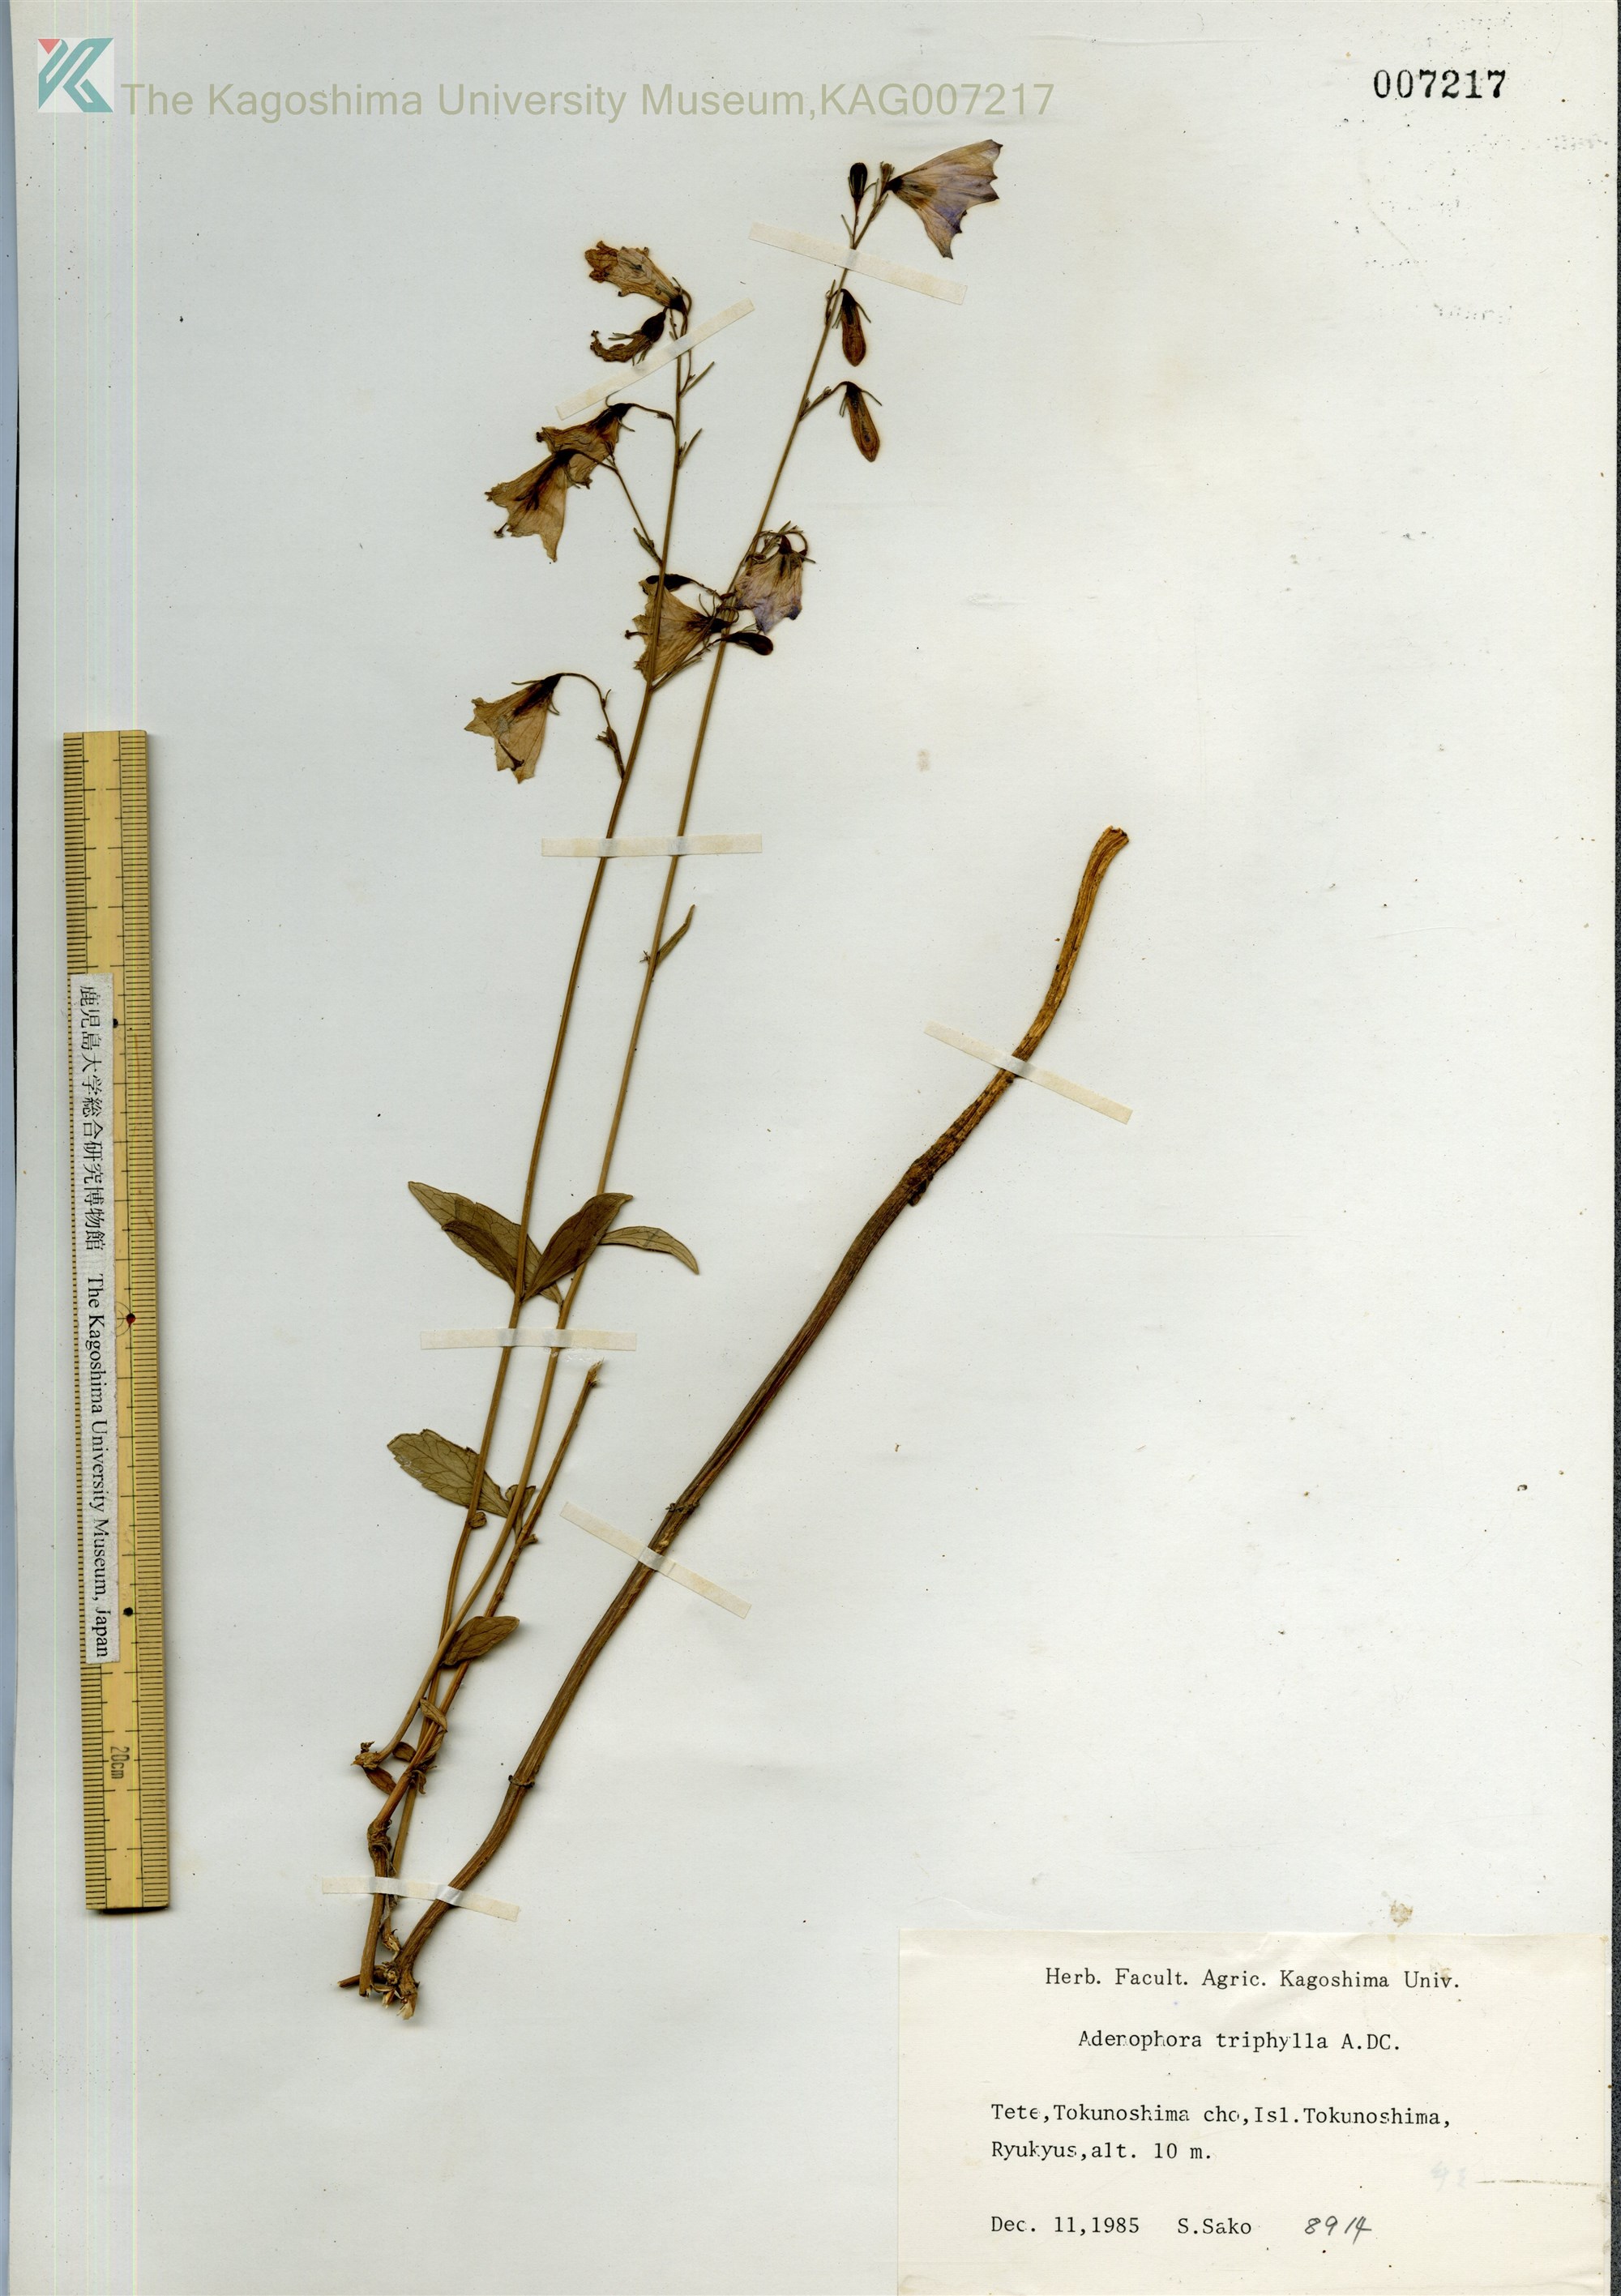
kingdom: Plantae
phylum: Tracheophyta
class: Magnoliopsida
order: Asterales
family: Campanulaceae
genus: Adenophora
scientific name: Adenophora tashiroi
